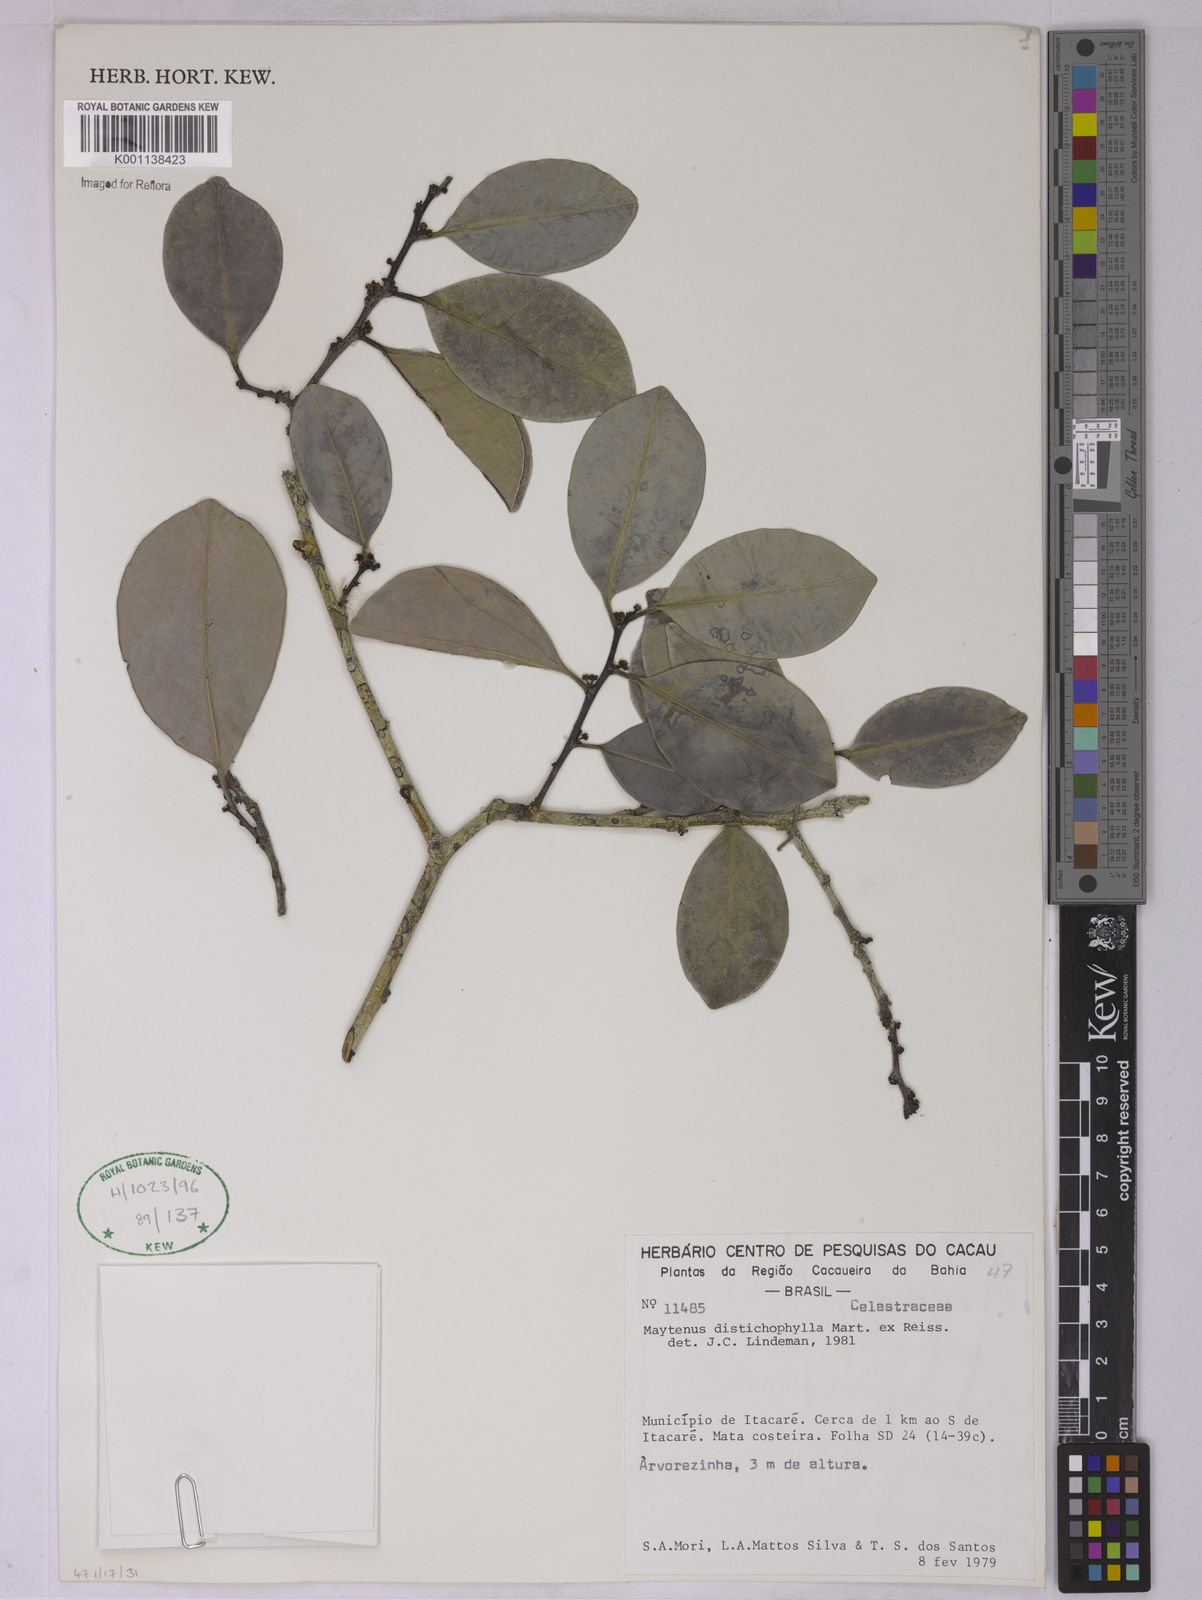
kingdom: Plantae
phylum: Tracheophyta
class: Magnoliopsida
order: Celastrales
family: Celastraceae
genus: Monteverdia
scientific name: Monteverdia distichophylla
